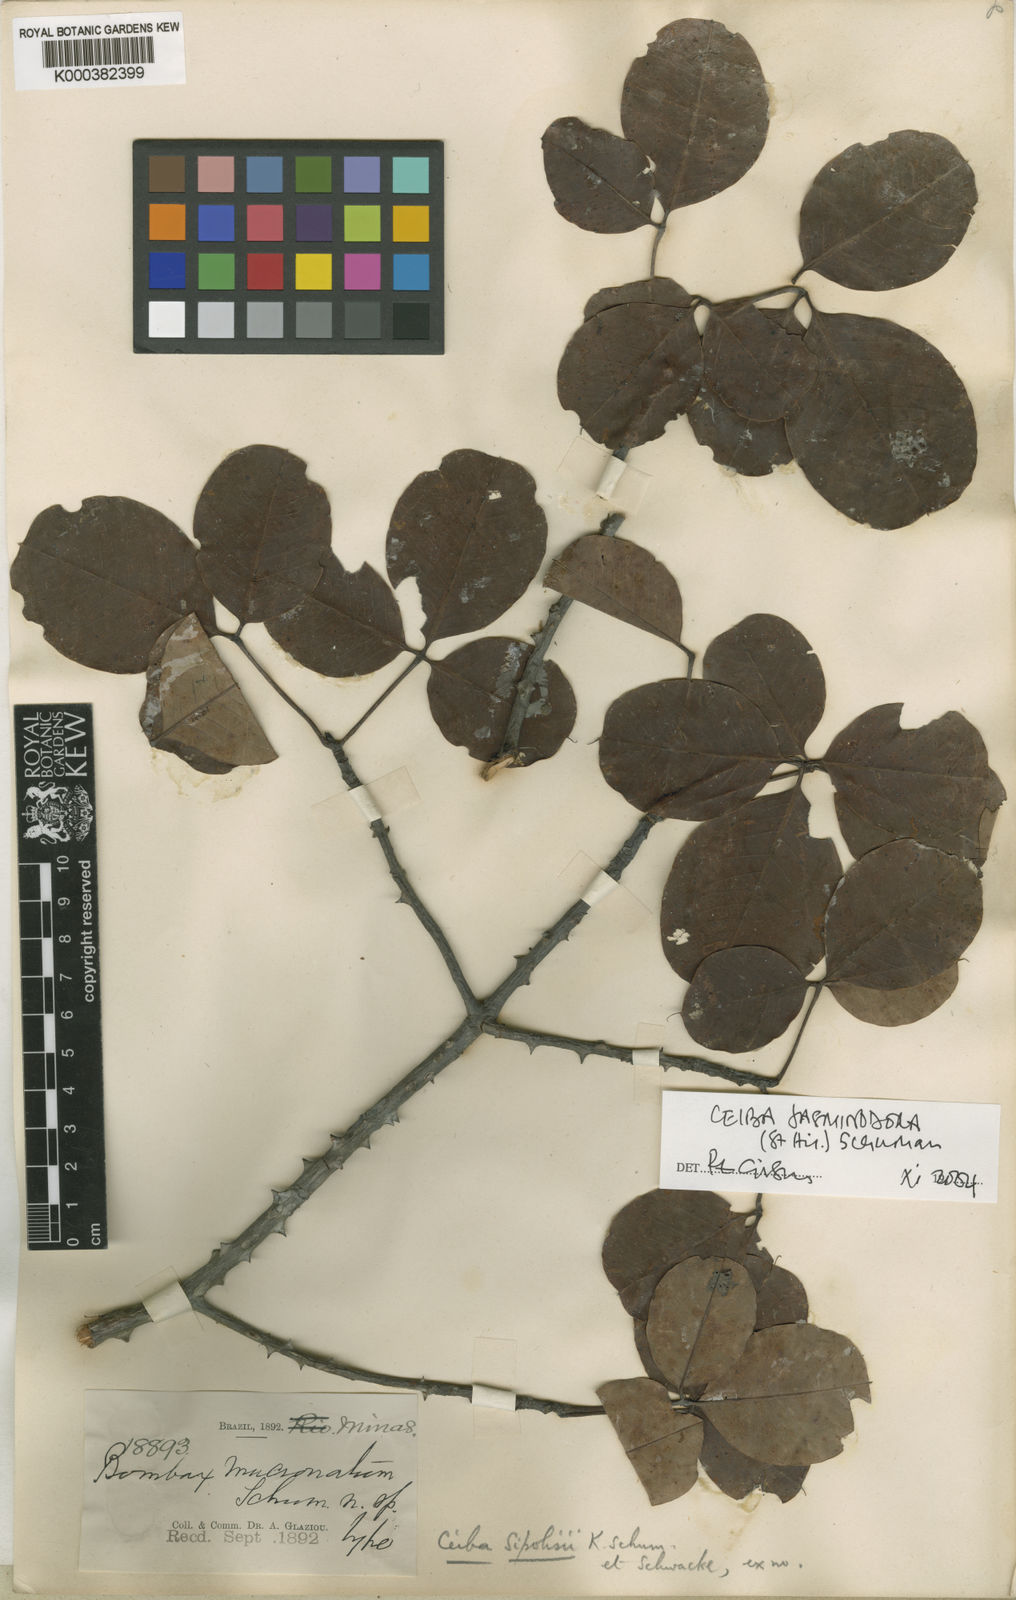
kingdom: Plantae
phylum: Tracheophyta
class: Magnoliopsida
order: Malvales
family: Malvaceae
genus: Ceiba
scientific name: Ceiba jasminodora
